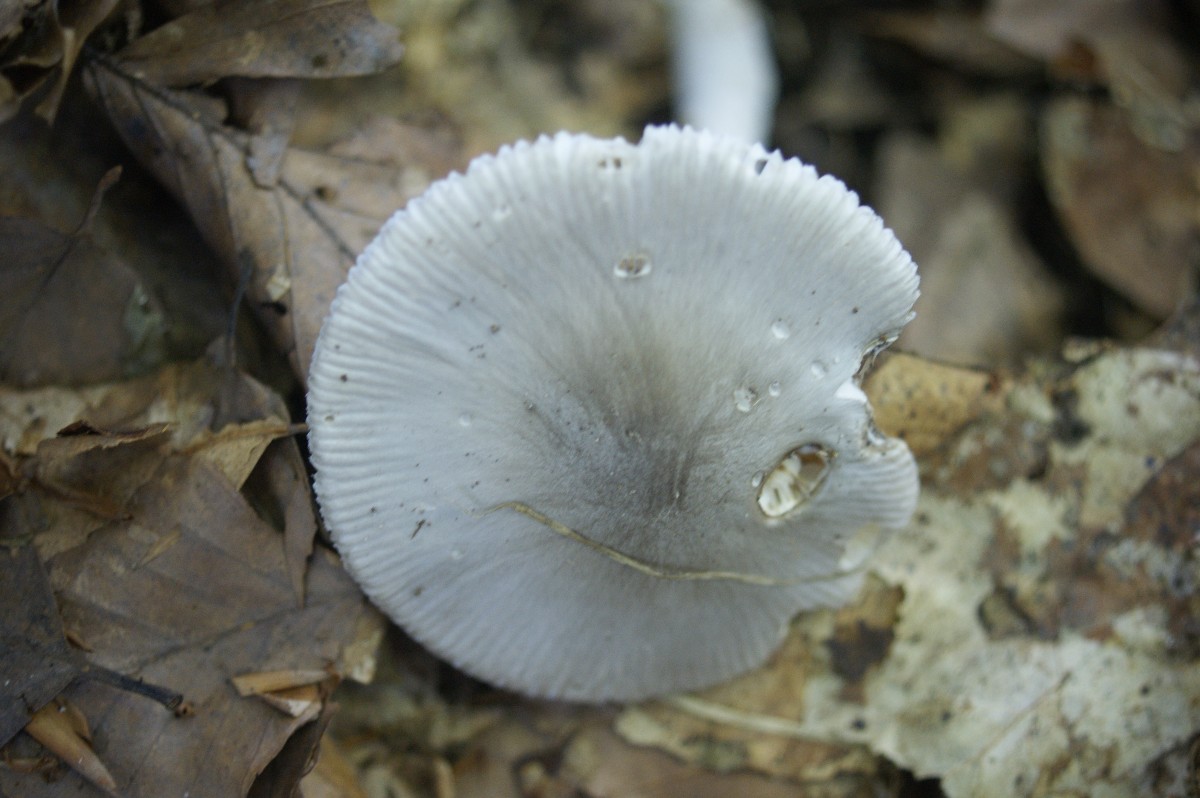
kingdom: Fungi
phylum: Basidiomycota
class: Agaricomycetes
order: Agaricales
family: Amanitaceae
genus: Amanita
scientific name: Amanita vaginata
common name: grå kam-fluesvamp
